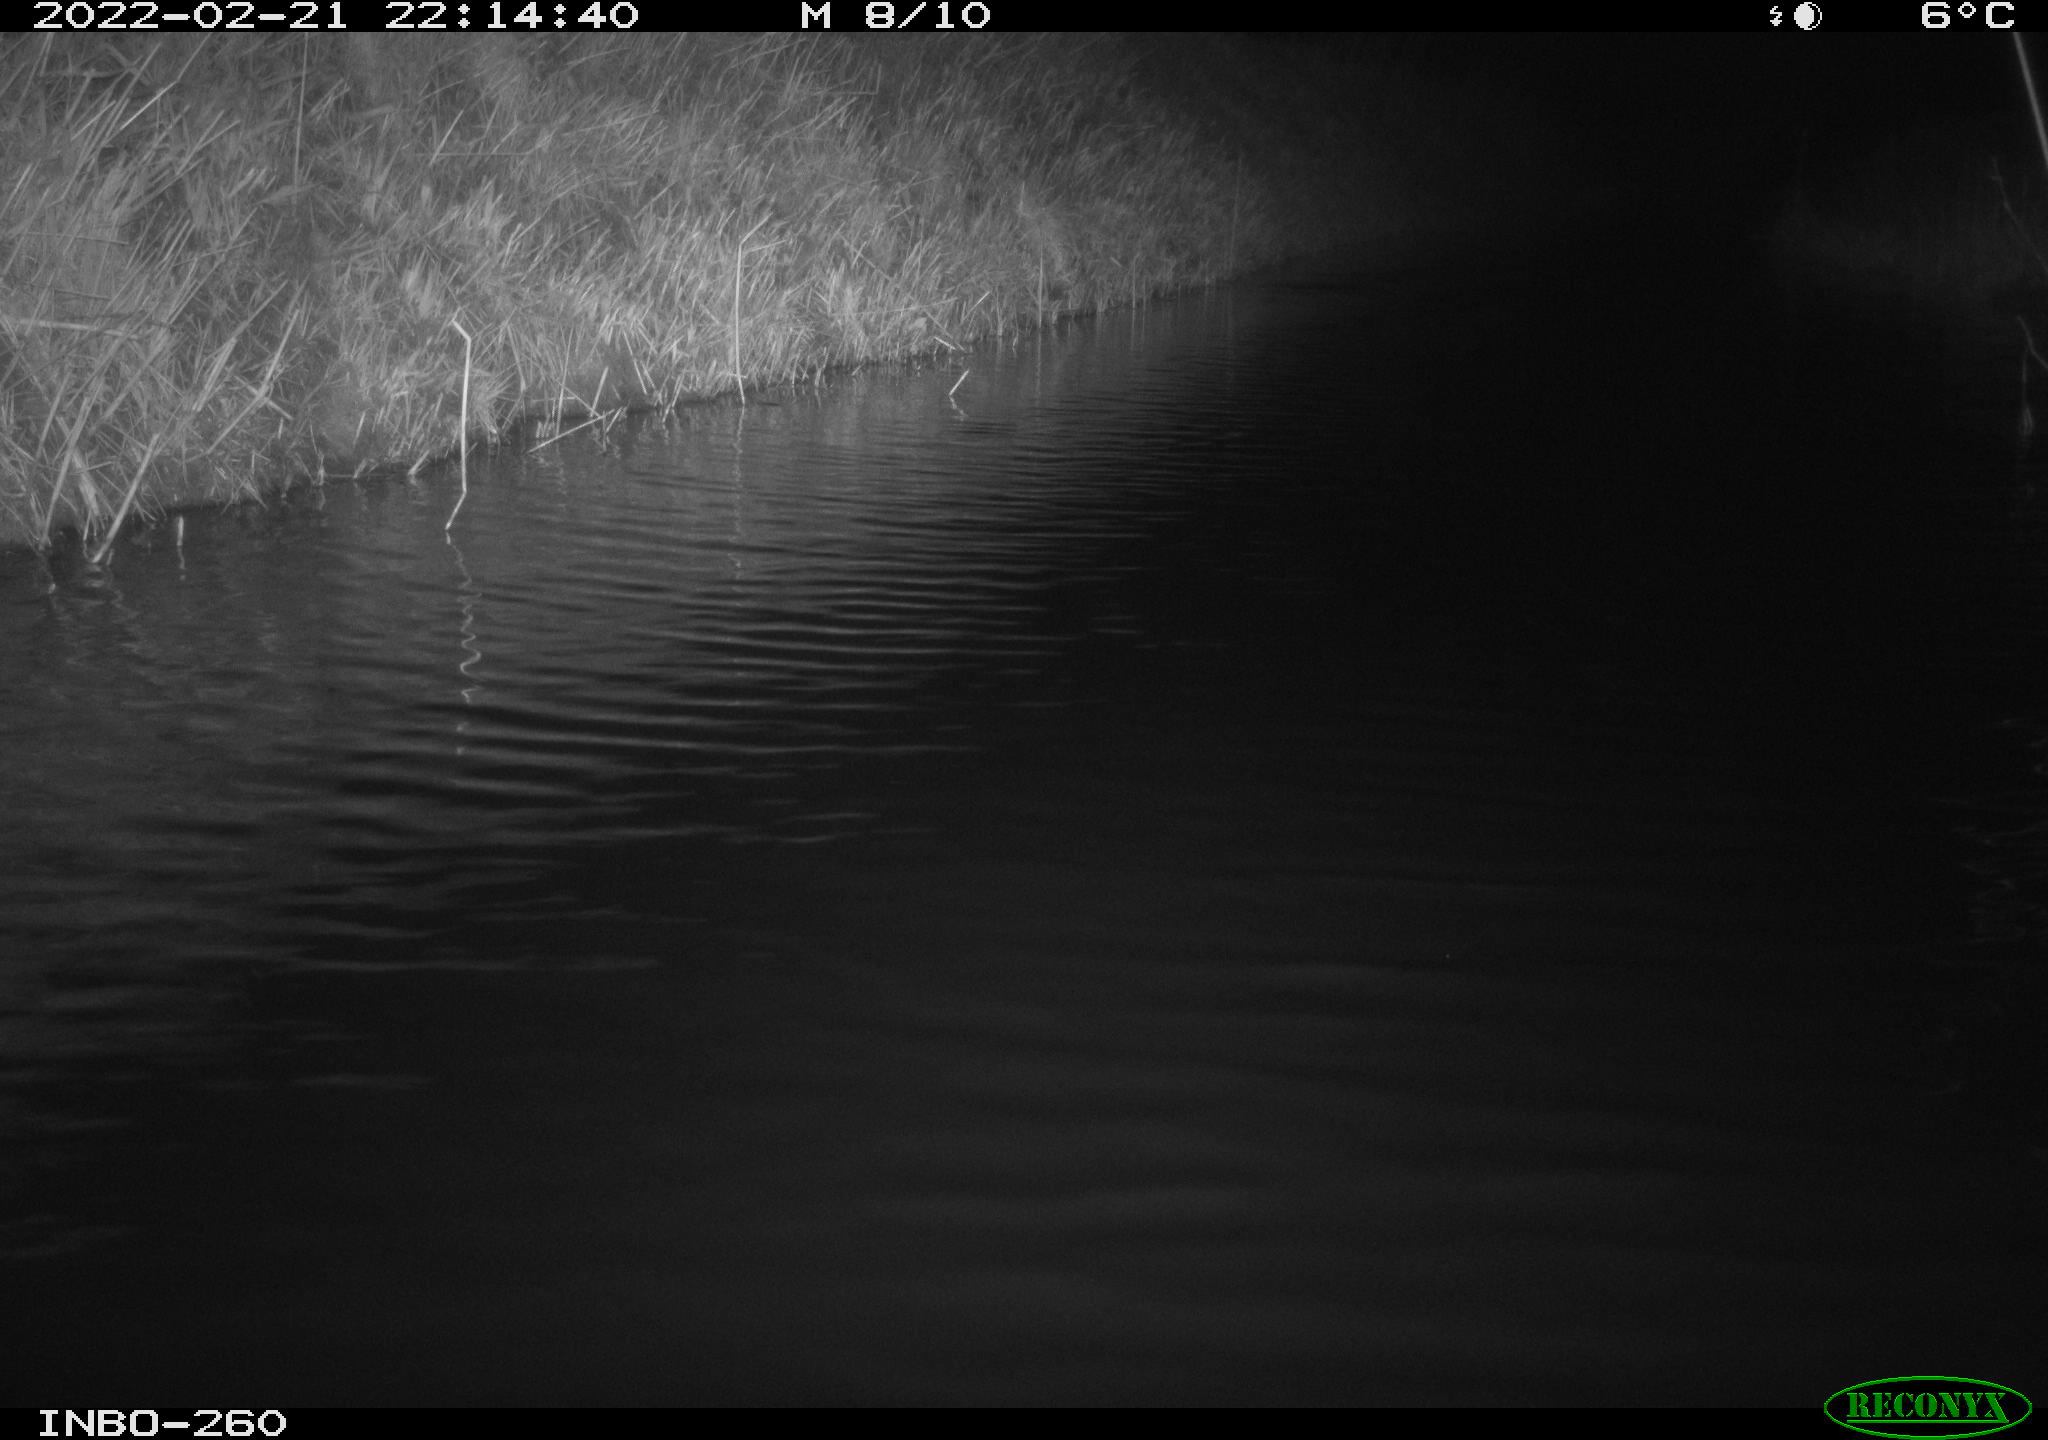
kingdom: Animalia
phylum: Chordata
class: Mammalia
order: Rodentia
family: Cricetidae
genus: Ondatra
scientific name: Ondatra zibethicus
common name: Muskrat
